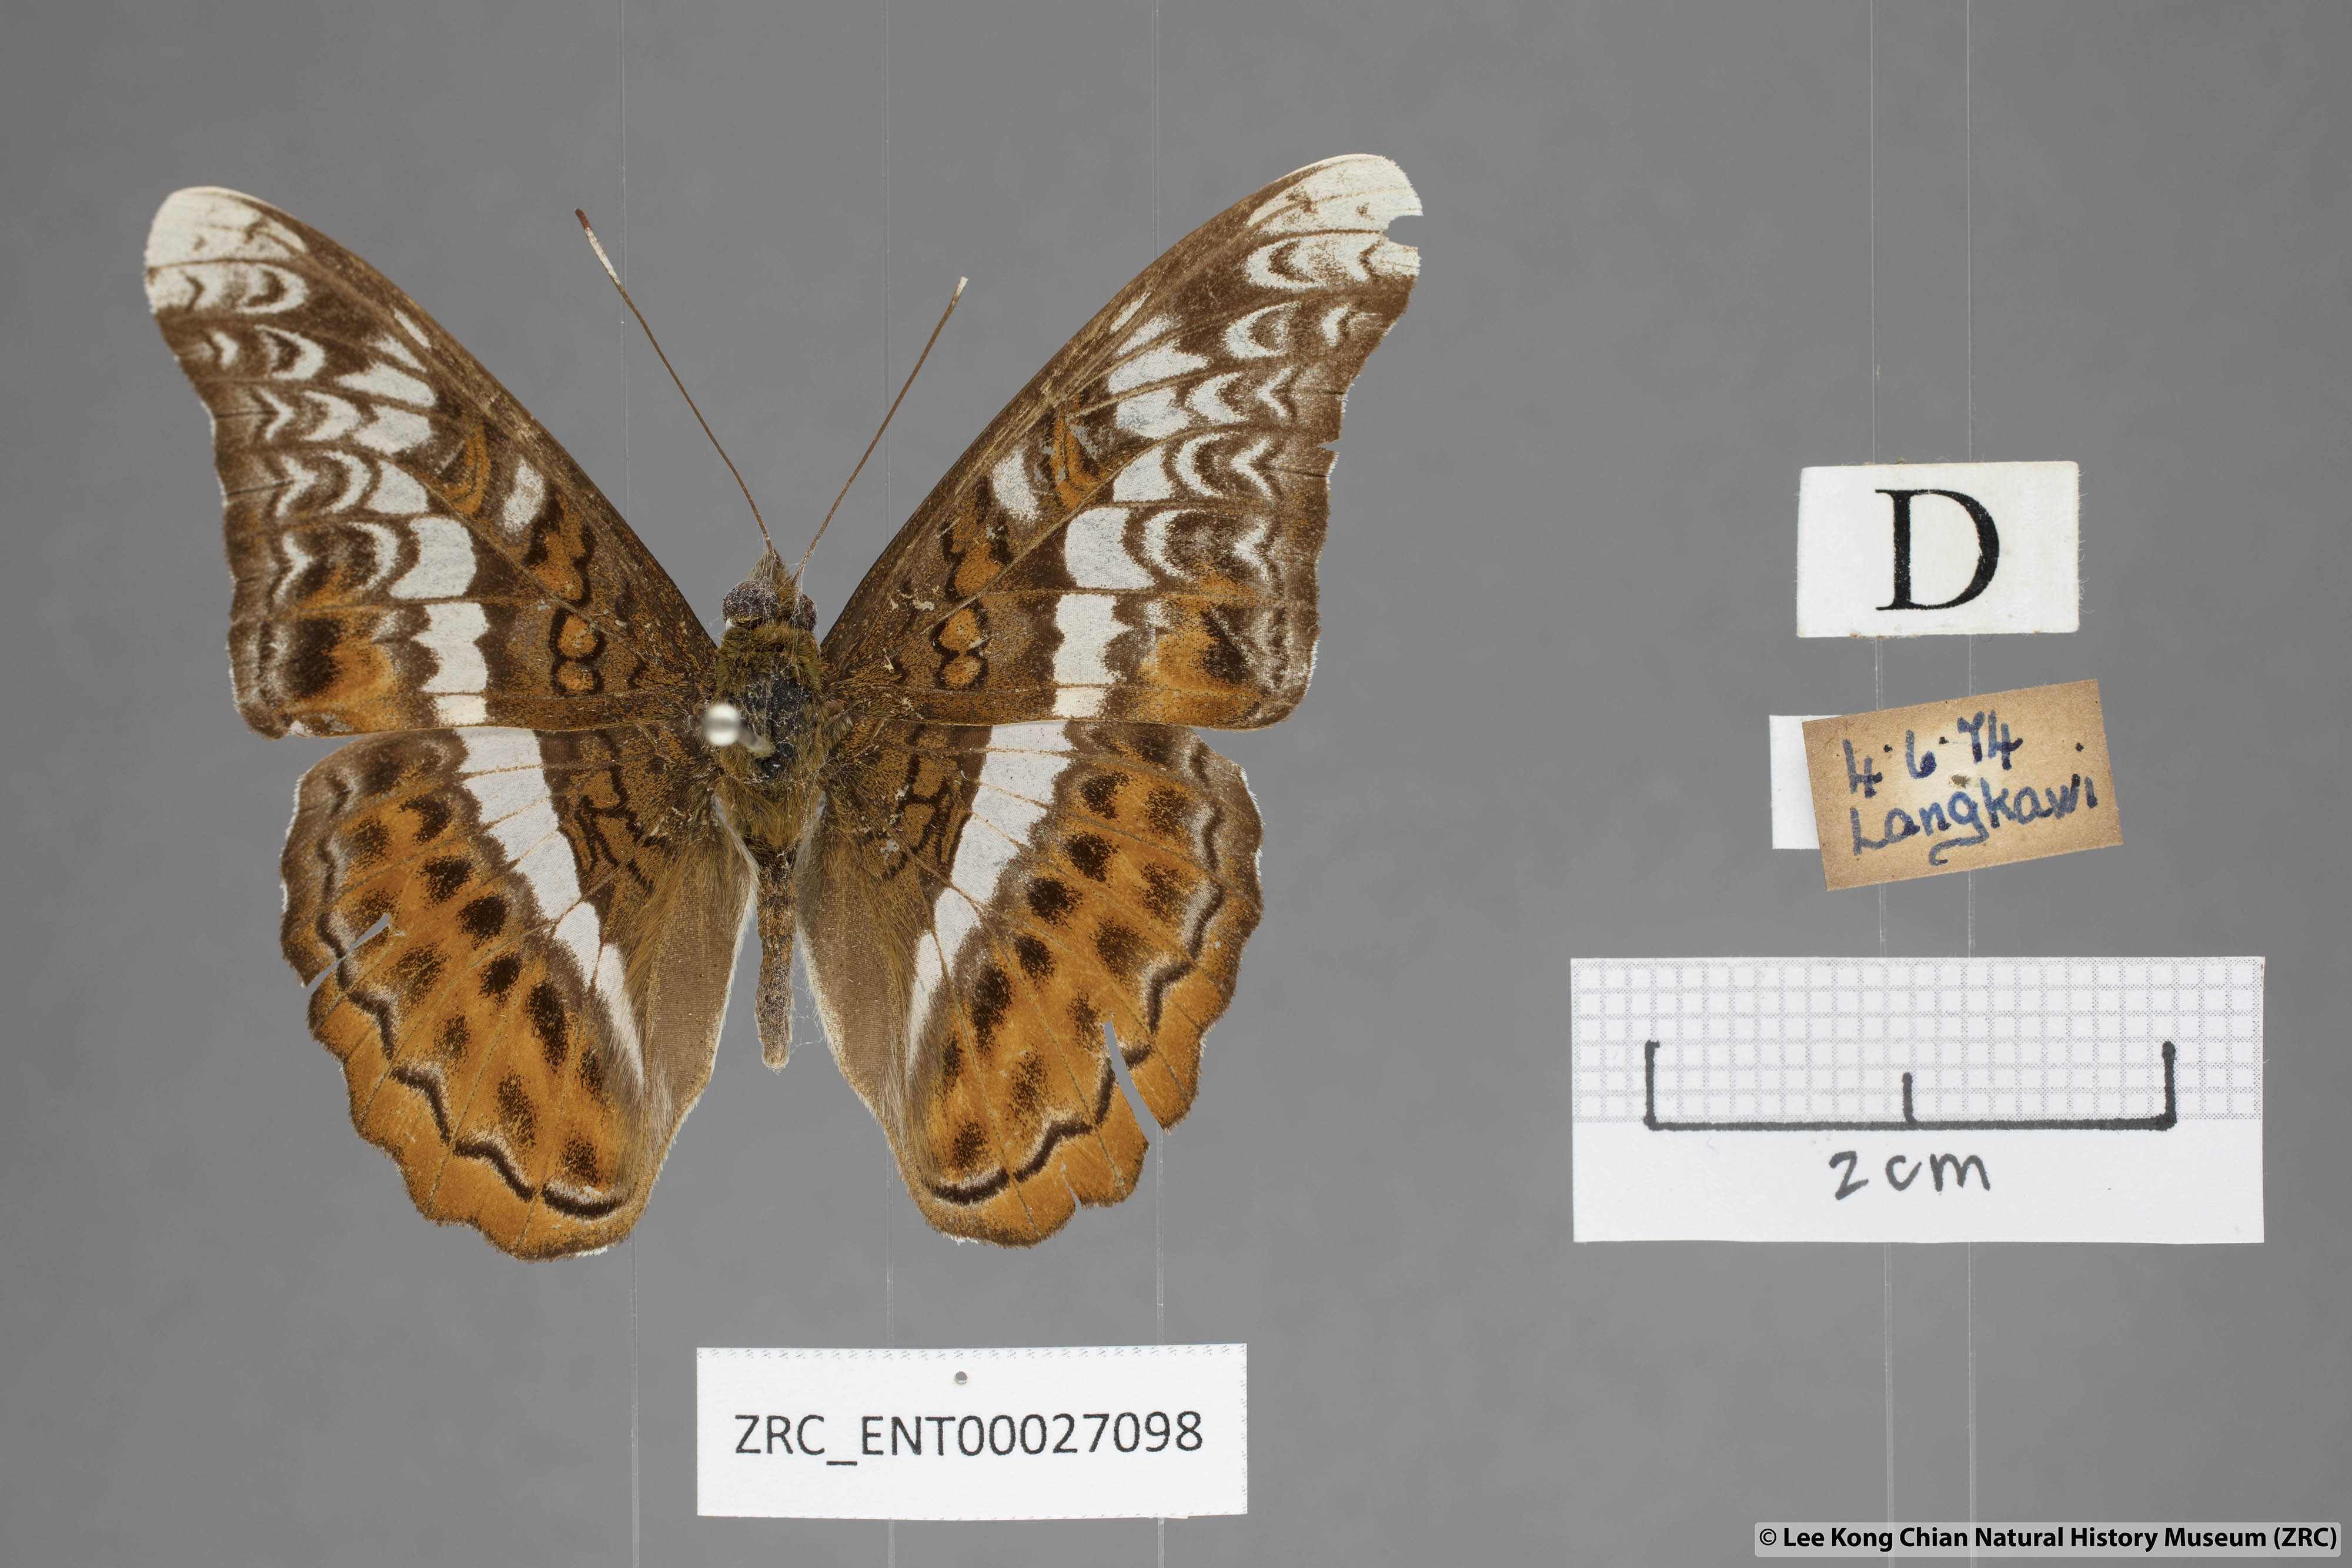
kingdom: Animalia
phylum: Arthropoda
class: Insecta
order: Lepidoptera
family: Nymphalidae
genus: Lebadea
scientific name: Lebadea martha
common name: Knight
